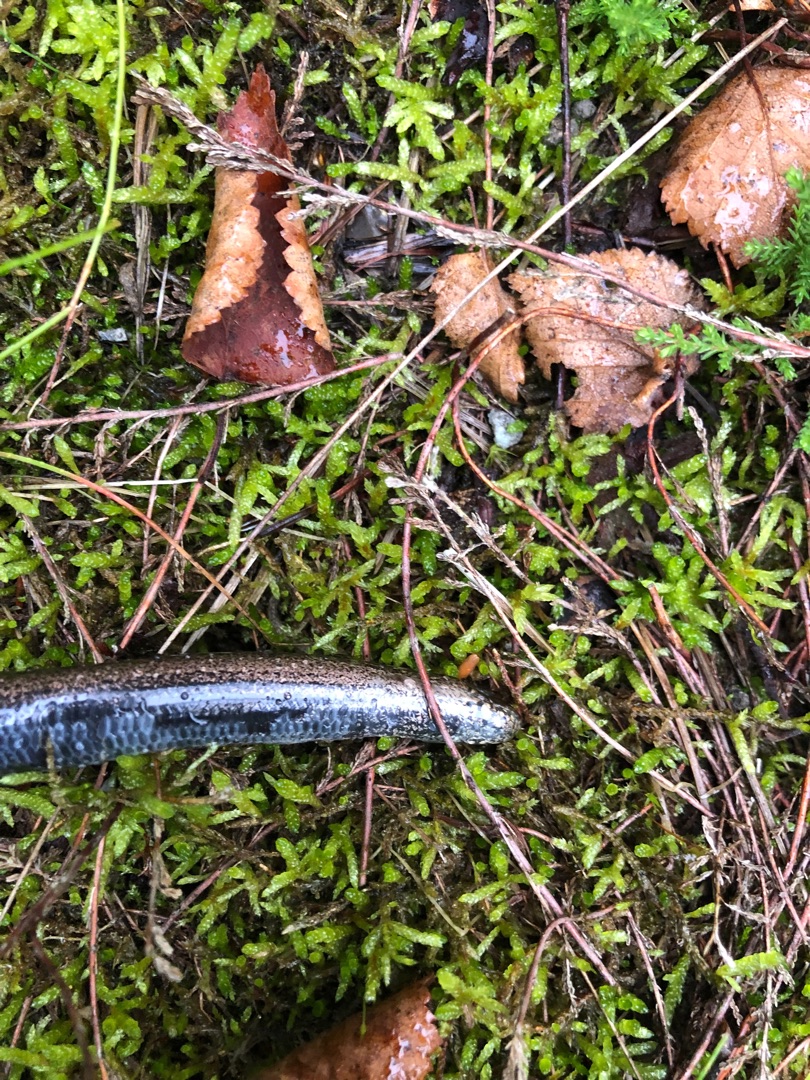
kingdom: Animalia
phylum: Chordata
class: Squamata
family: Anguidae
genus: Anguis
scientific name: Anguis fragilis
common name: Stålorm
